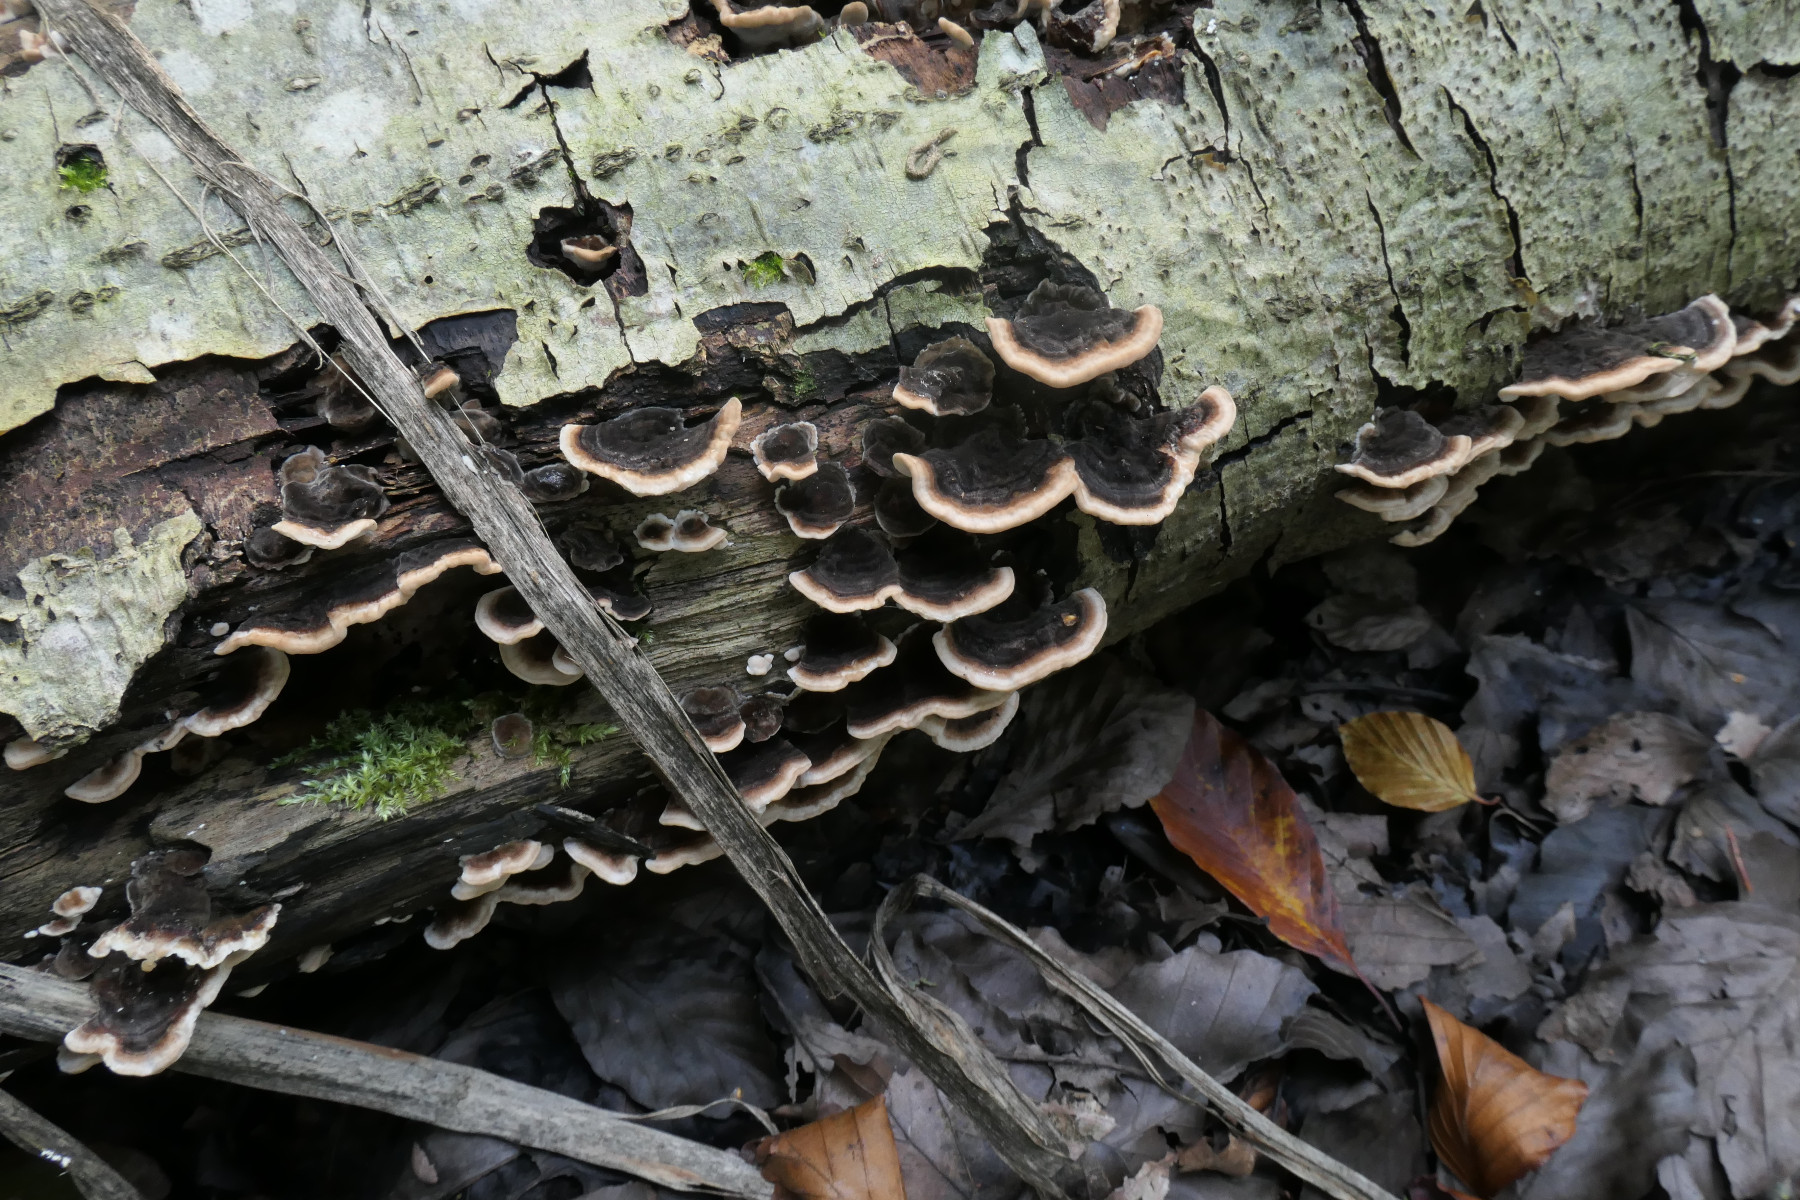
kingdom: Fungi
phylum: Basidiomycota
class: Agaricomycetes
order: Polyporales
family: Polyporaceae
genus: Trametes
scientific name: Trametes versicolor
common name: broget læderporesvamp
